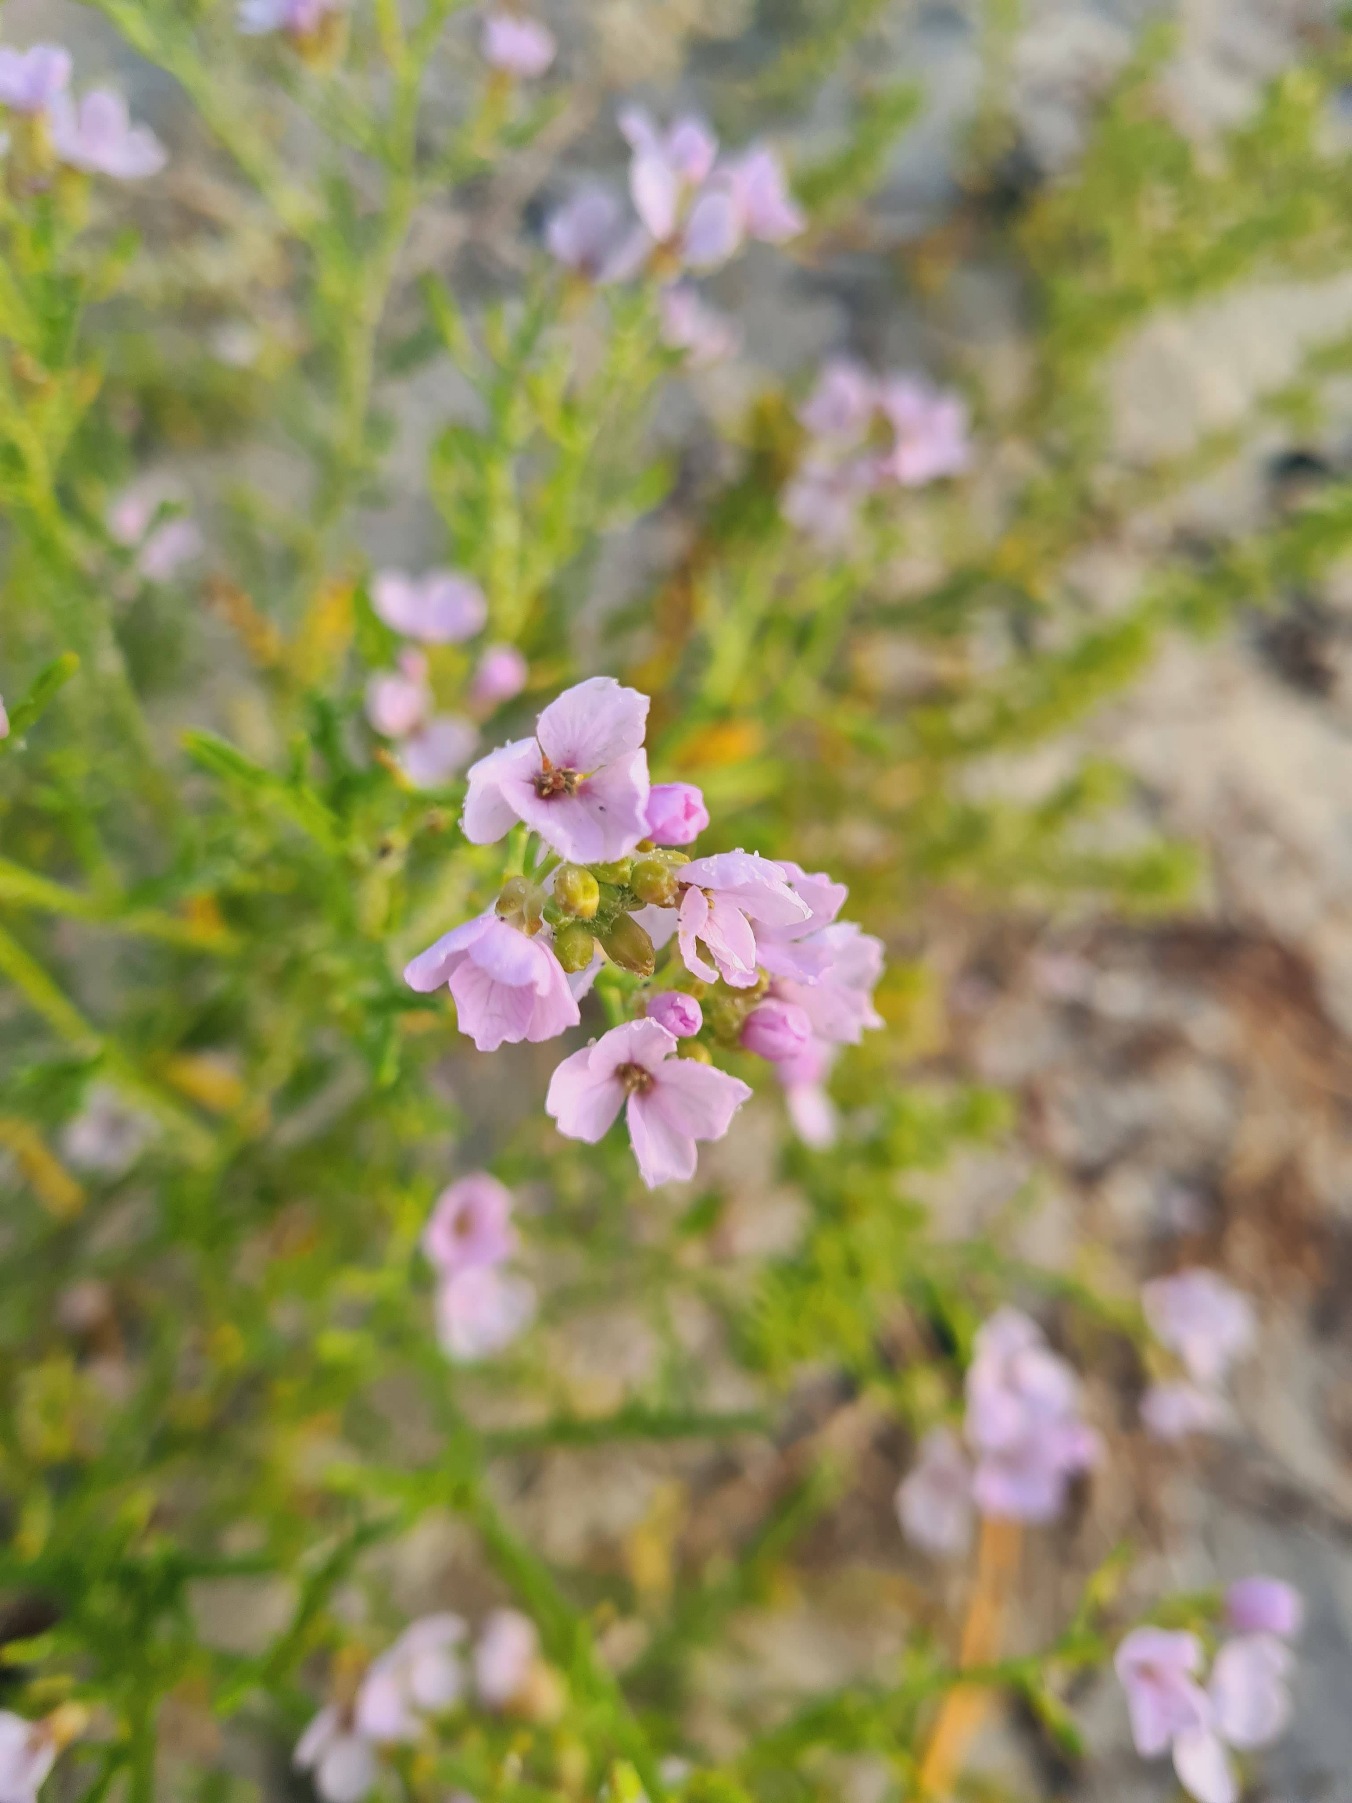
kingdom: Plantae
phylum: Tracheophyta
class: Magnoliopsida
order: Brassicales
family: Brassicaceae
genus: Cakile
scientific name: Cakile maritima
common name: Strandsennep
